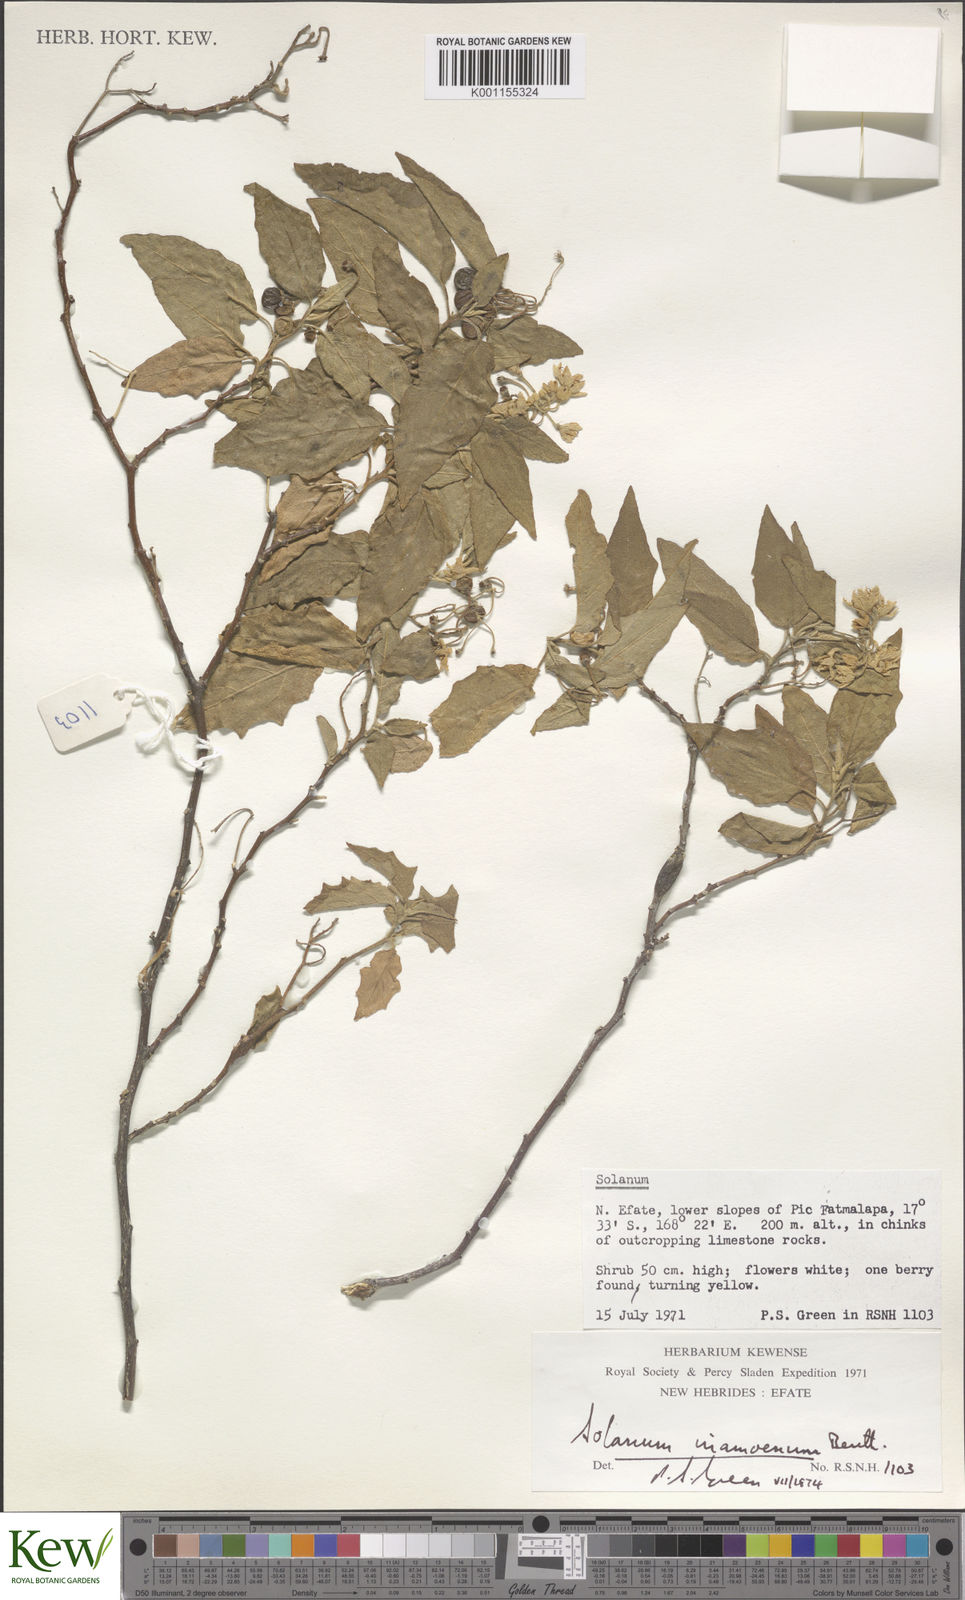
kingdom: Plantae
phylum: Tracheophyta
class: Magnoliopsida
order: Solanales
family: Solanaceae
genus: Solanum
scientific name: Solanum
